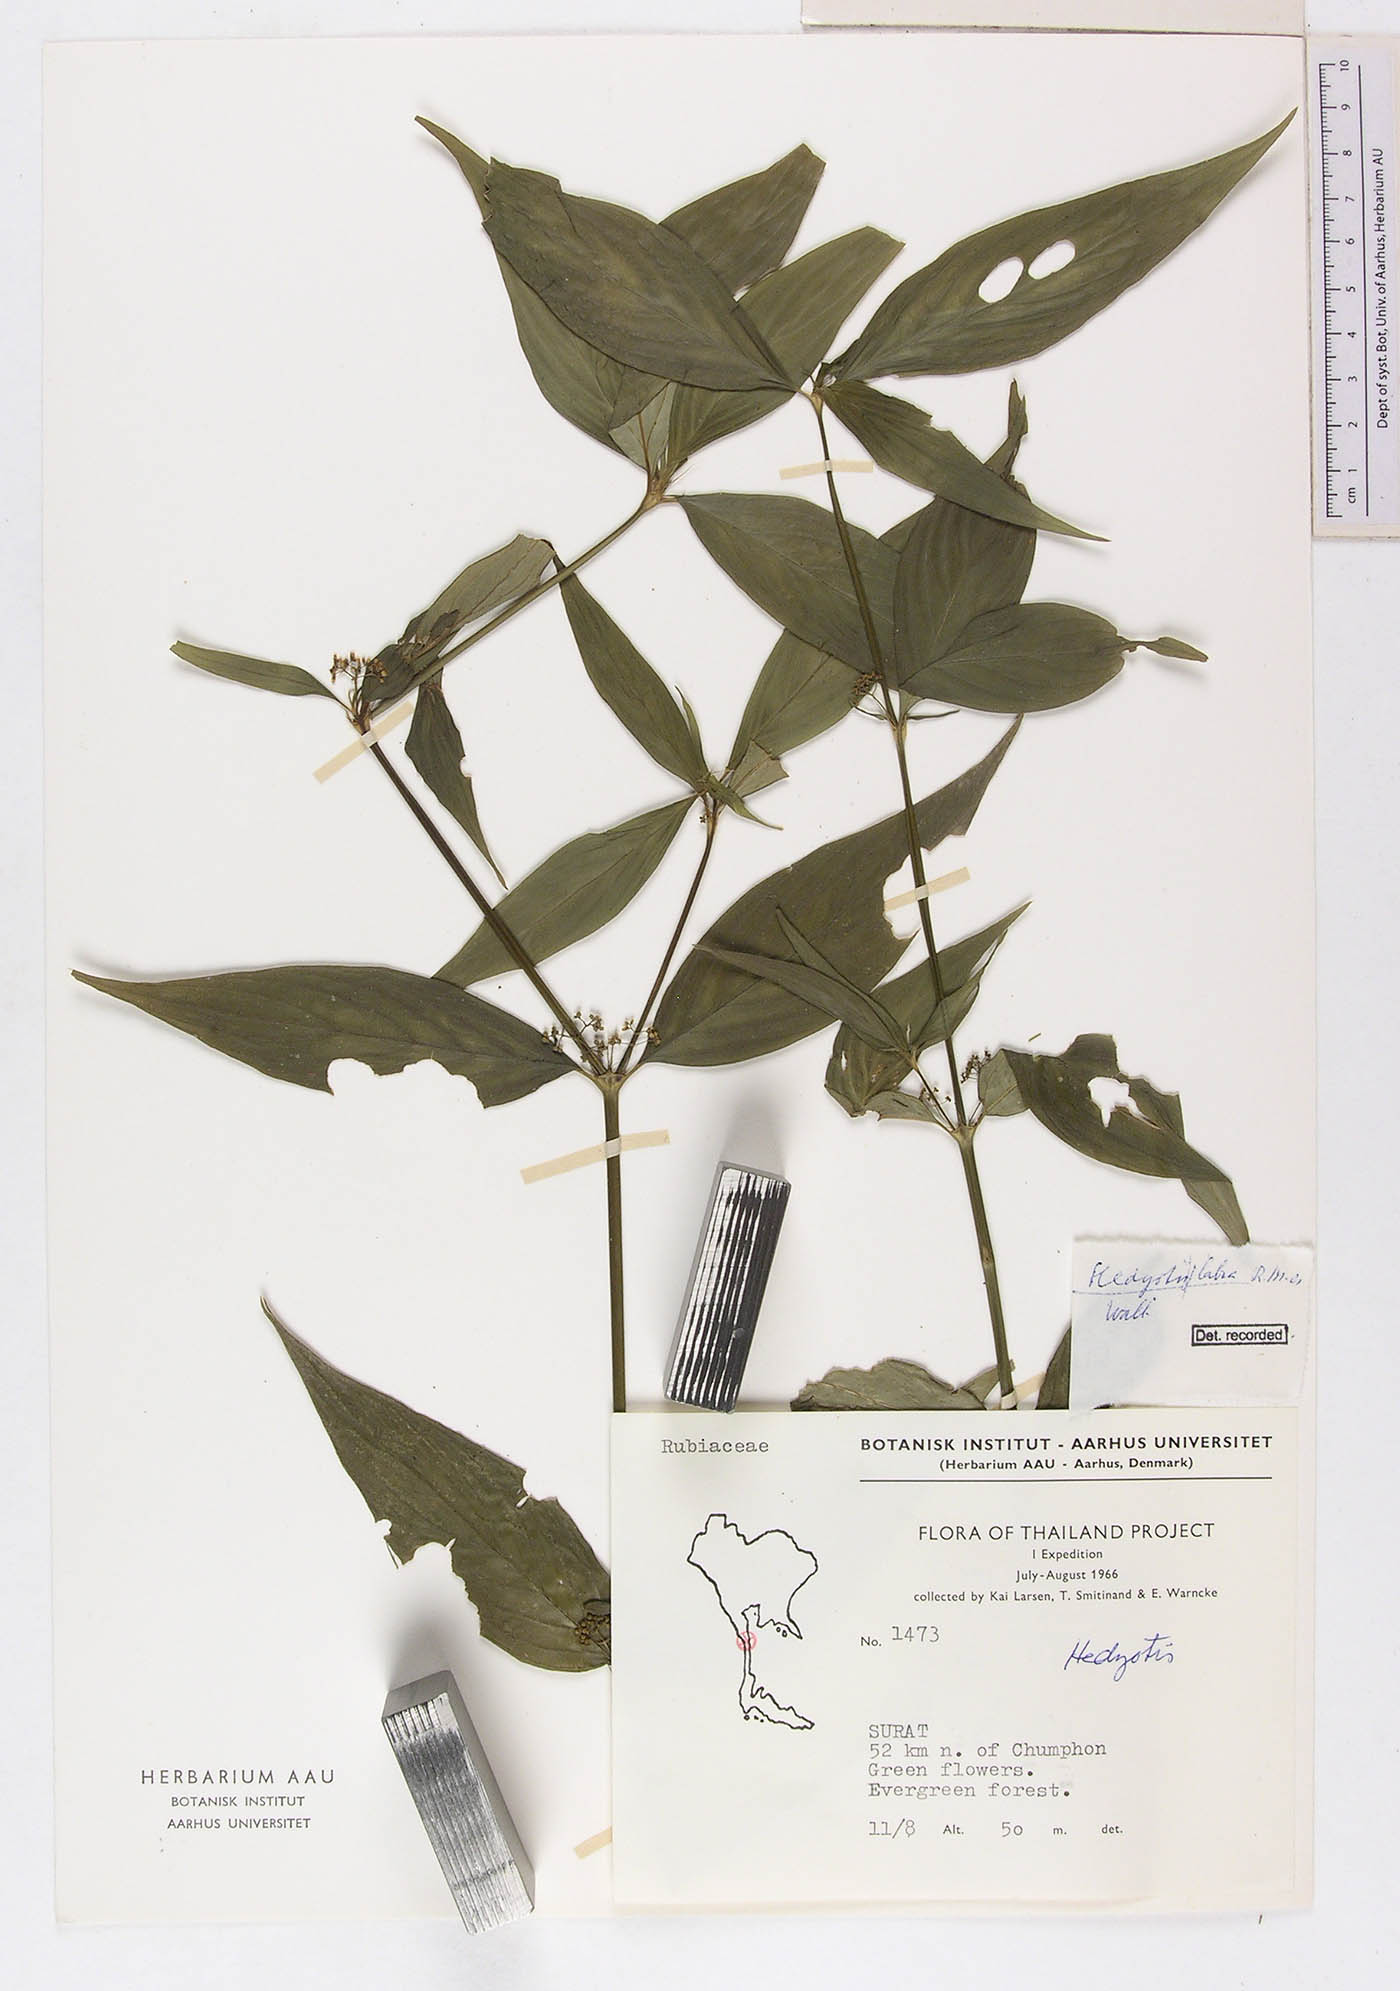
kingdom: Plantae
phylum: Tracheophyta
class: Magnoliopsida
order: Gentianales
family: Rubiaceae
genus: Exallage
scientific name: Exallage insularis
